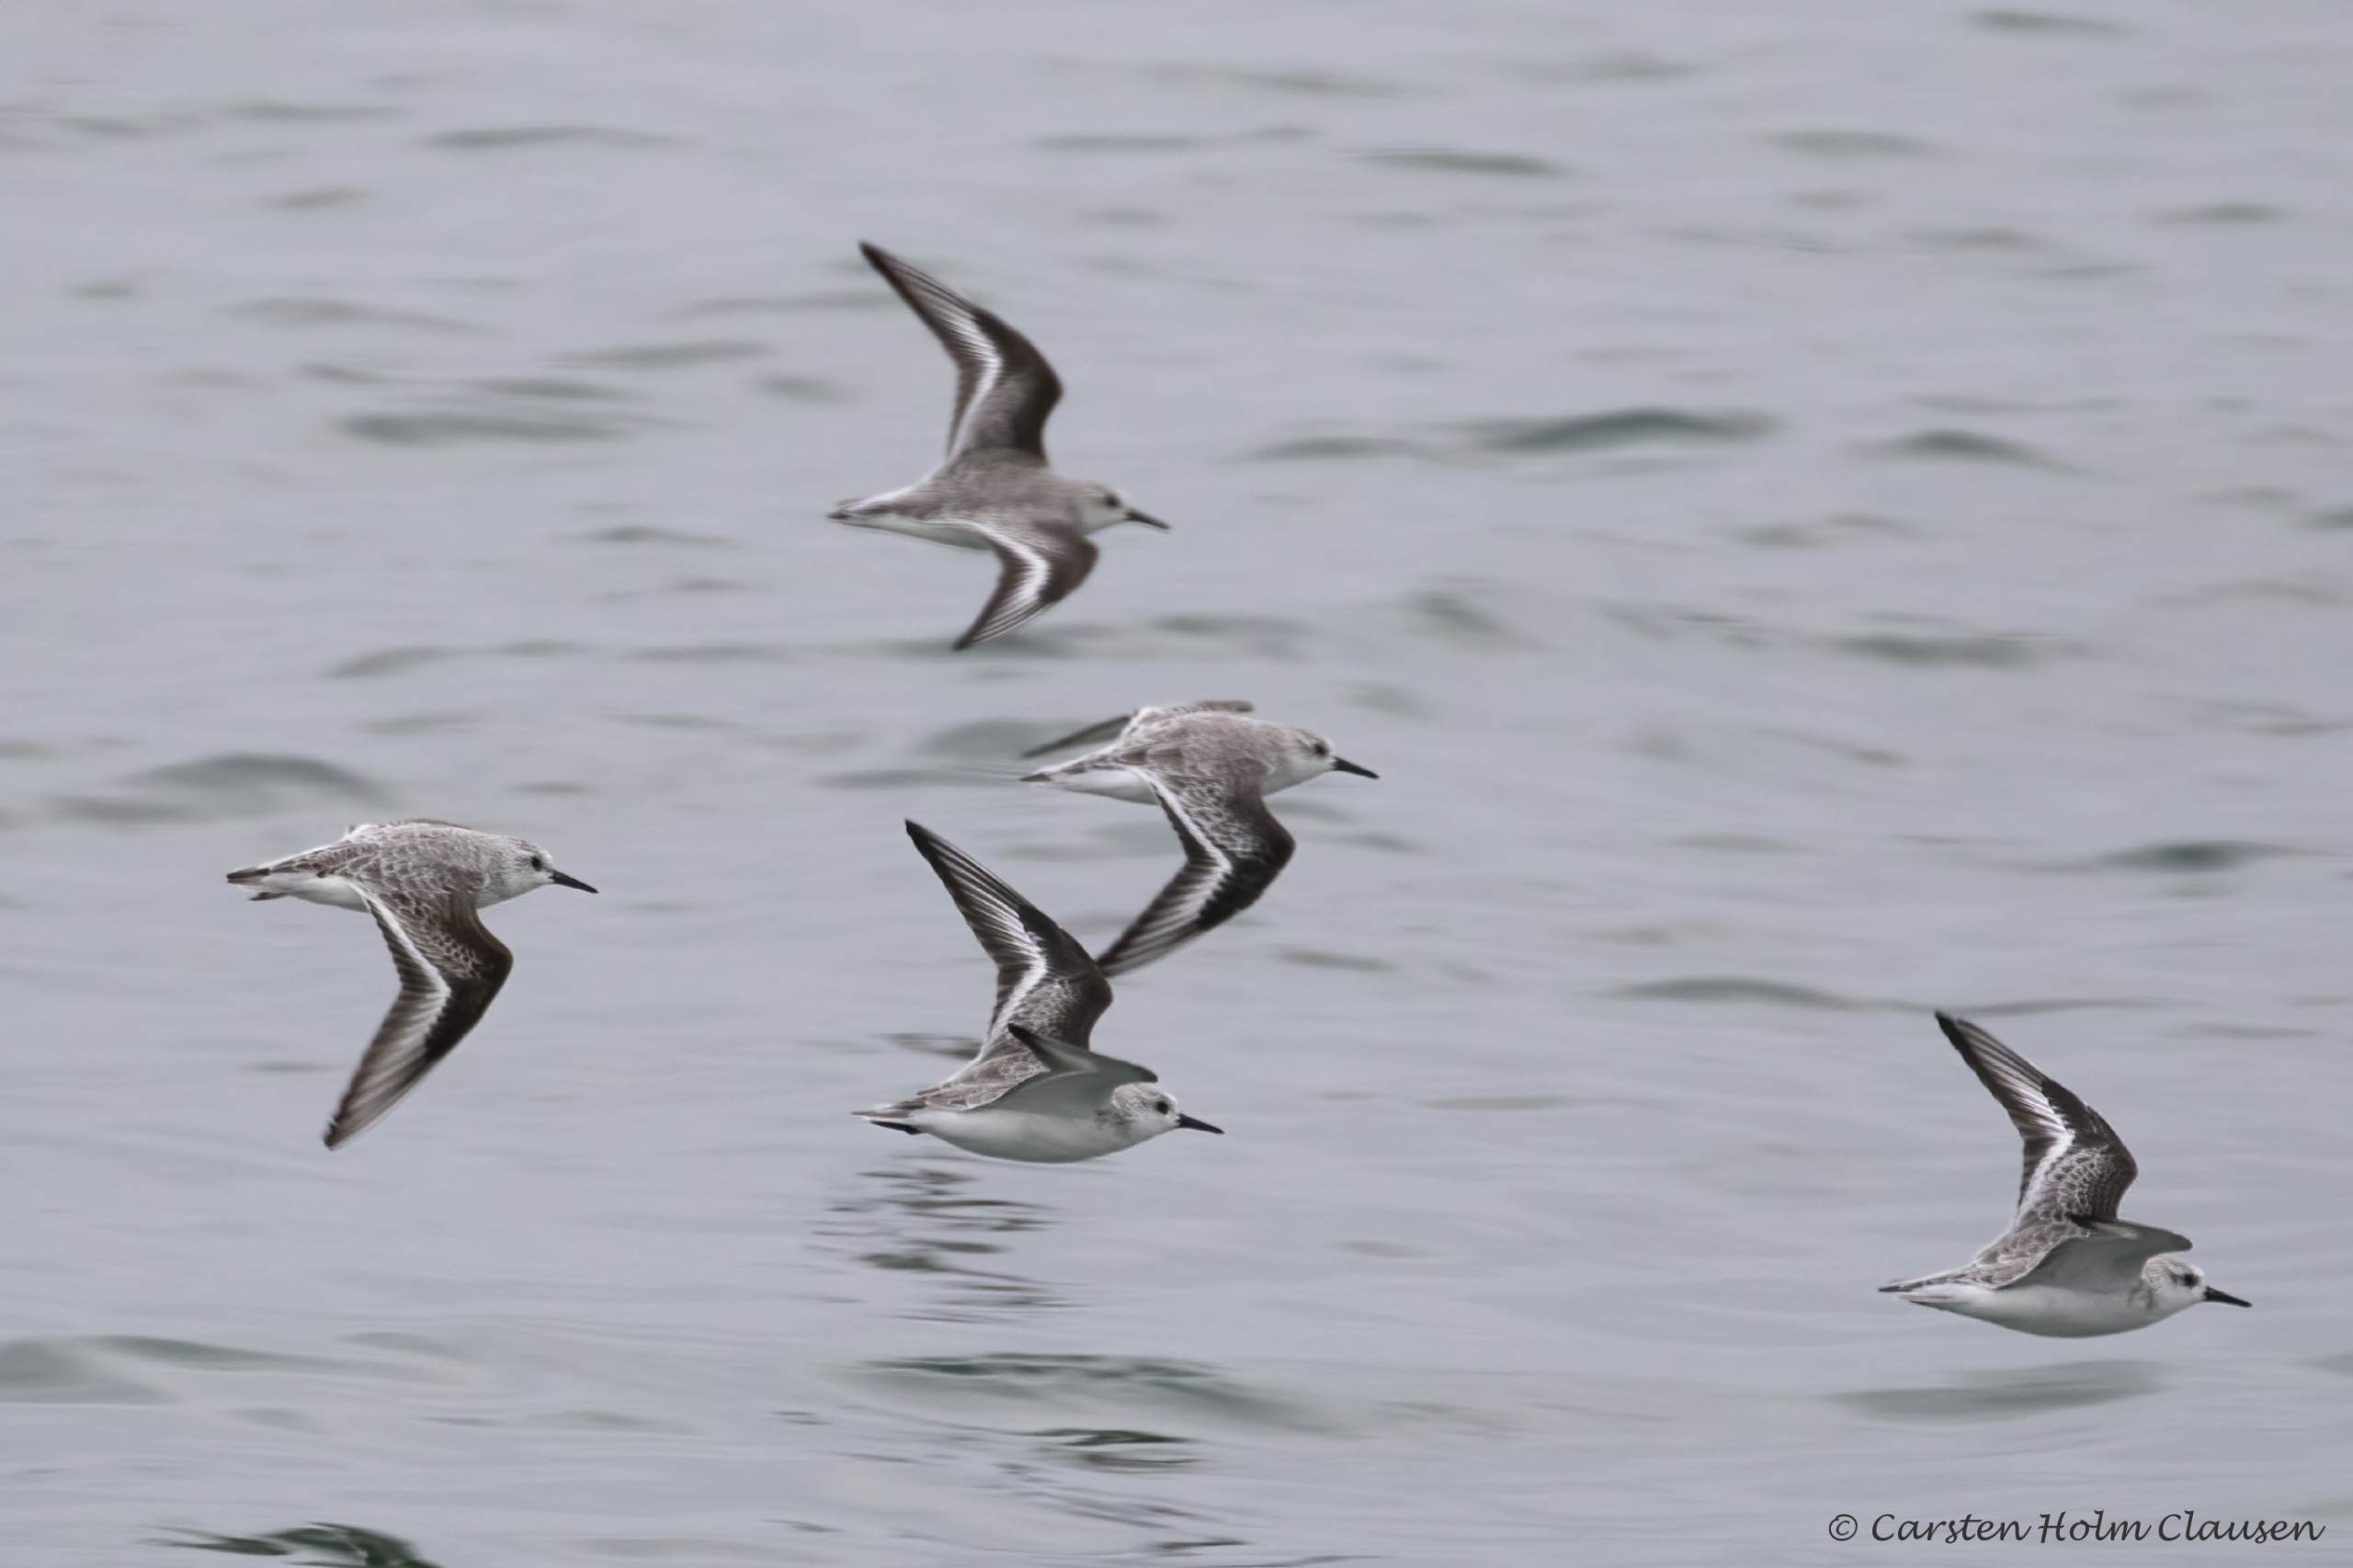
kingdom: Animalia
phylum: Chordata
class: Aves
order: Charadriiformes
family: Scolopacidae
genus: Calidris
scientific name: Calidris alba
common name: Sandløber
